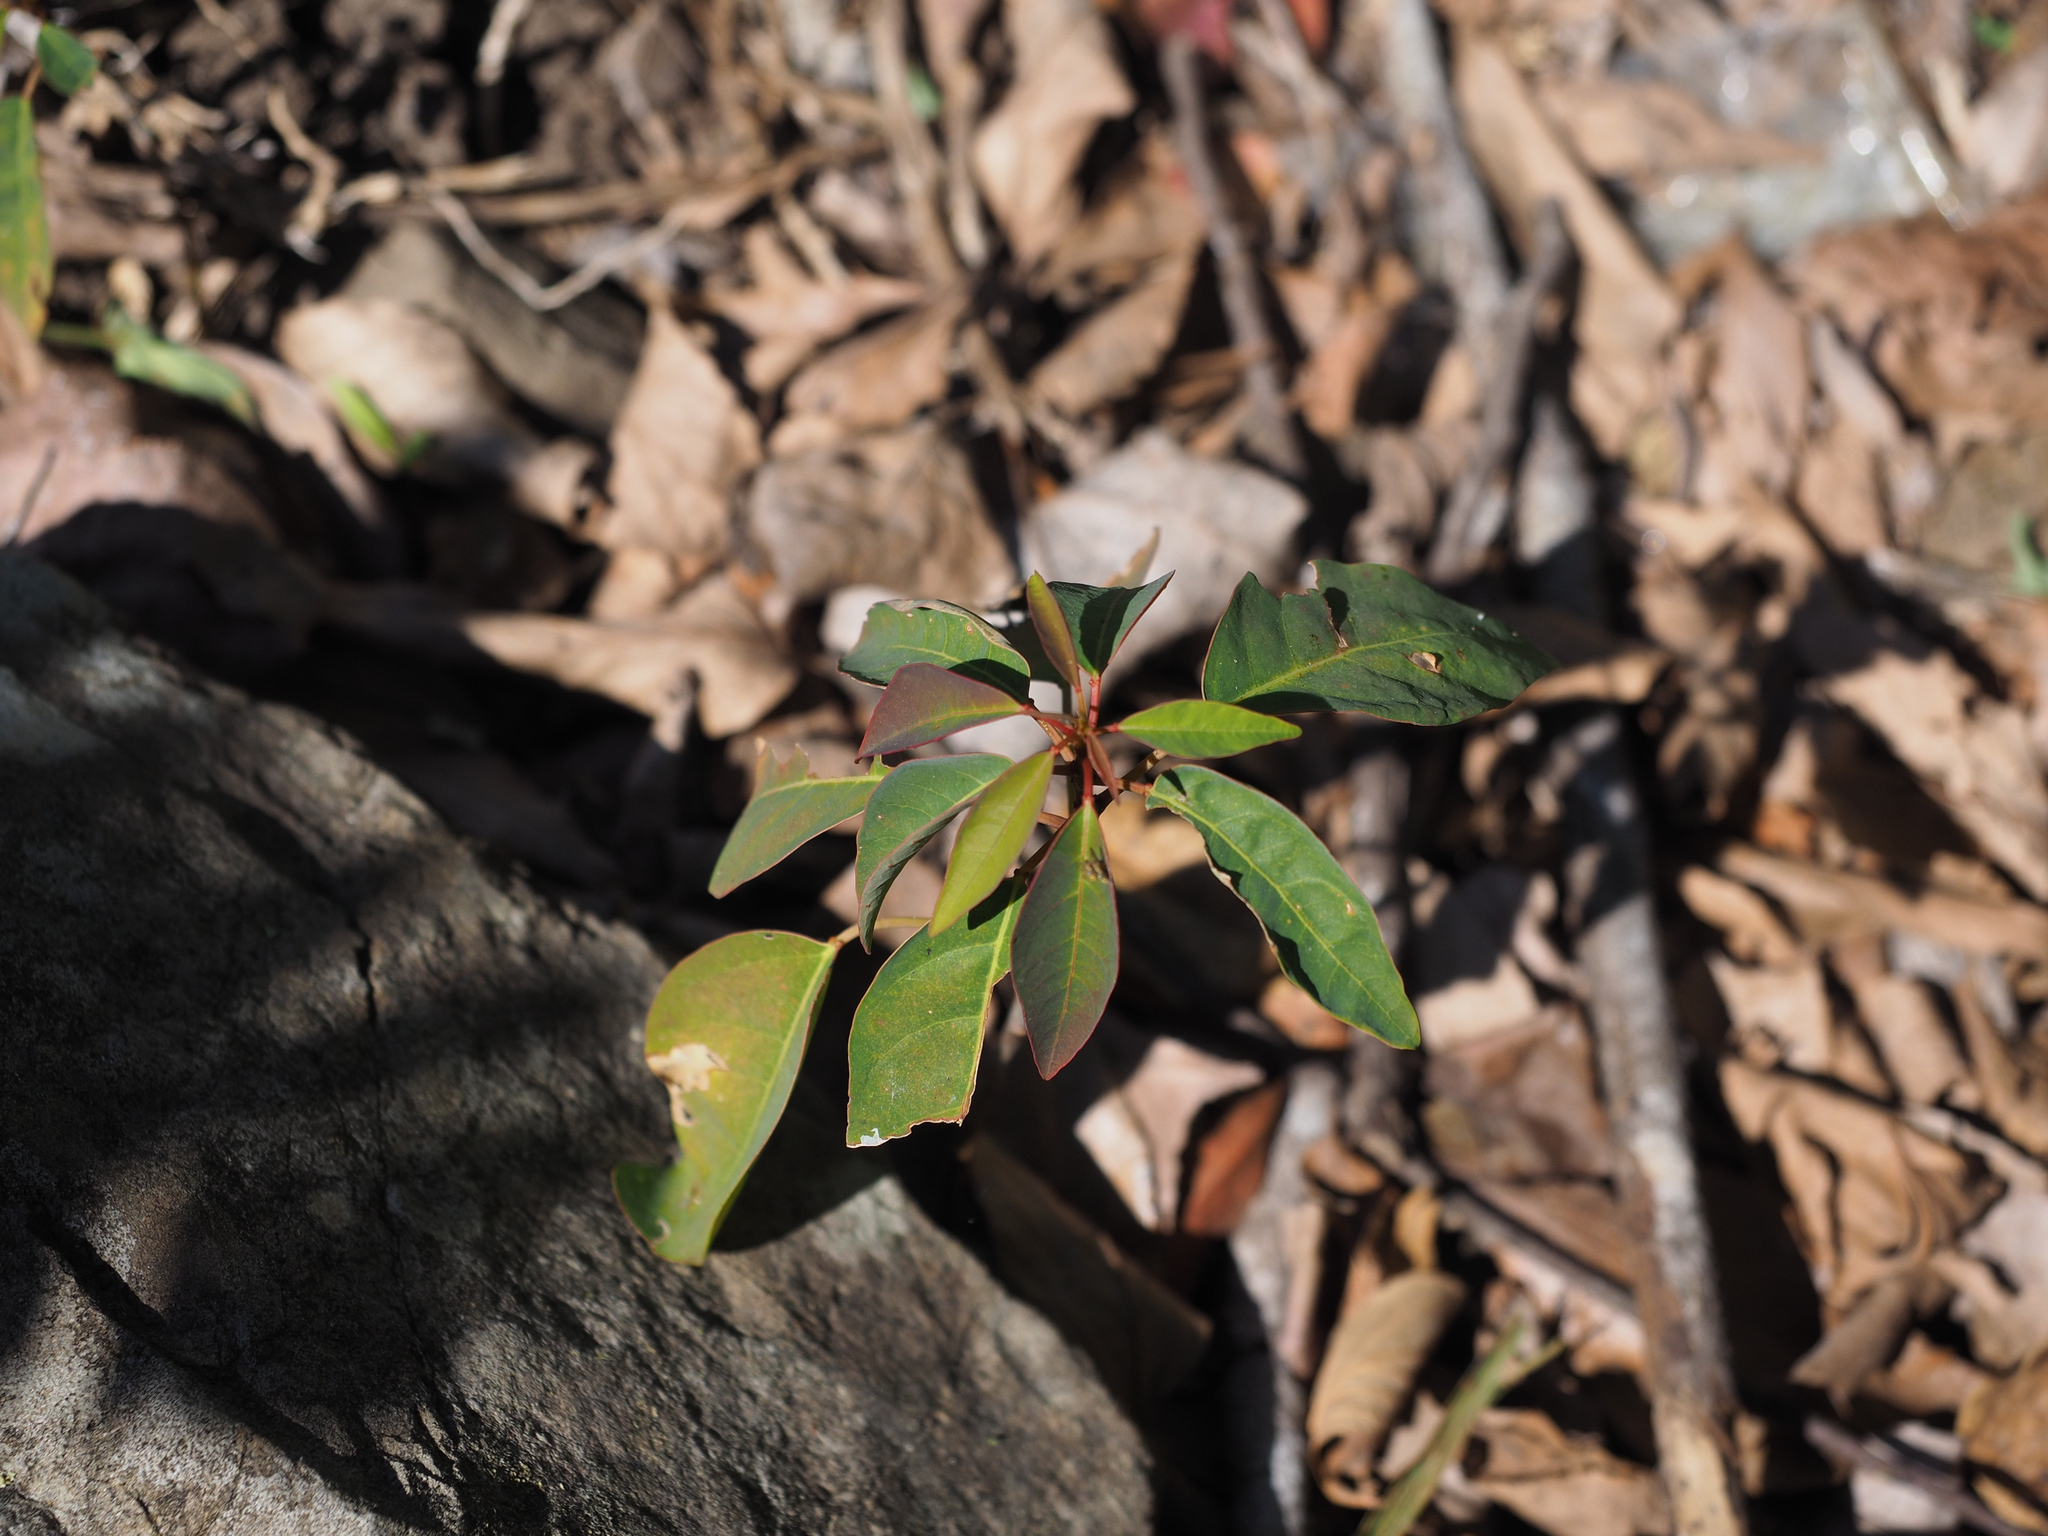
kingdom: Plantae
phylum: Tracheophyta
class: Magnoliopsida
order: Malpighiales
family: Euphorbiaceae
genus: Triadica
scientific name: Triadica cochinchinensis
